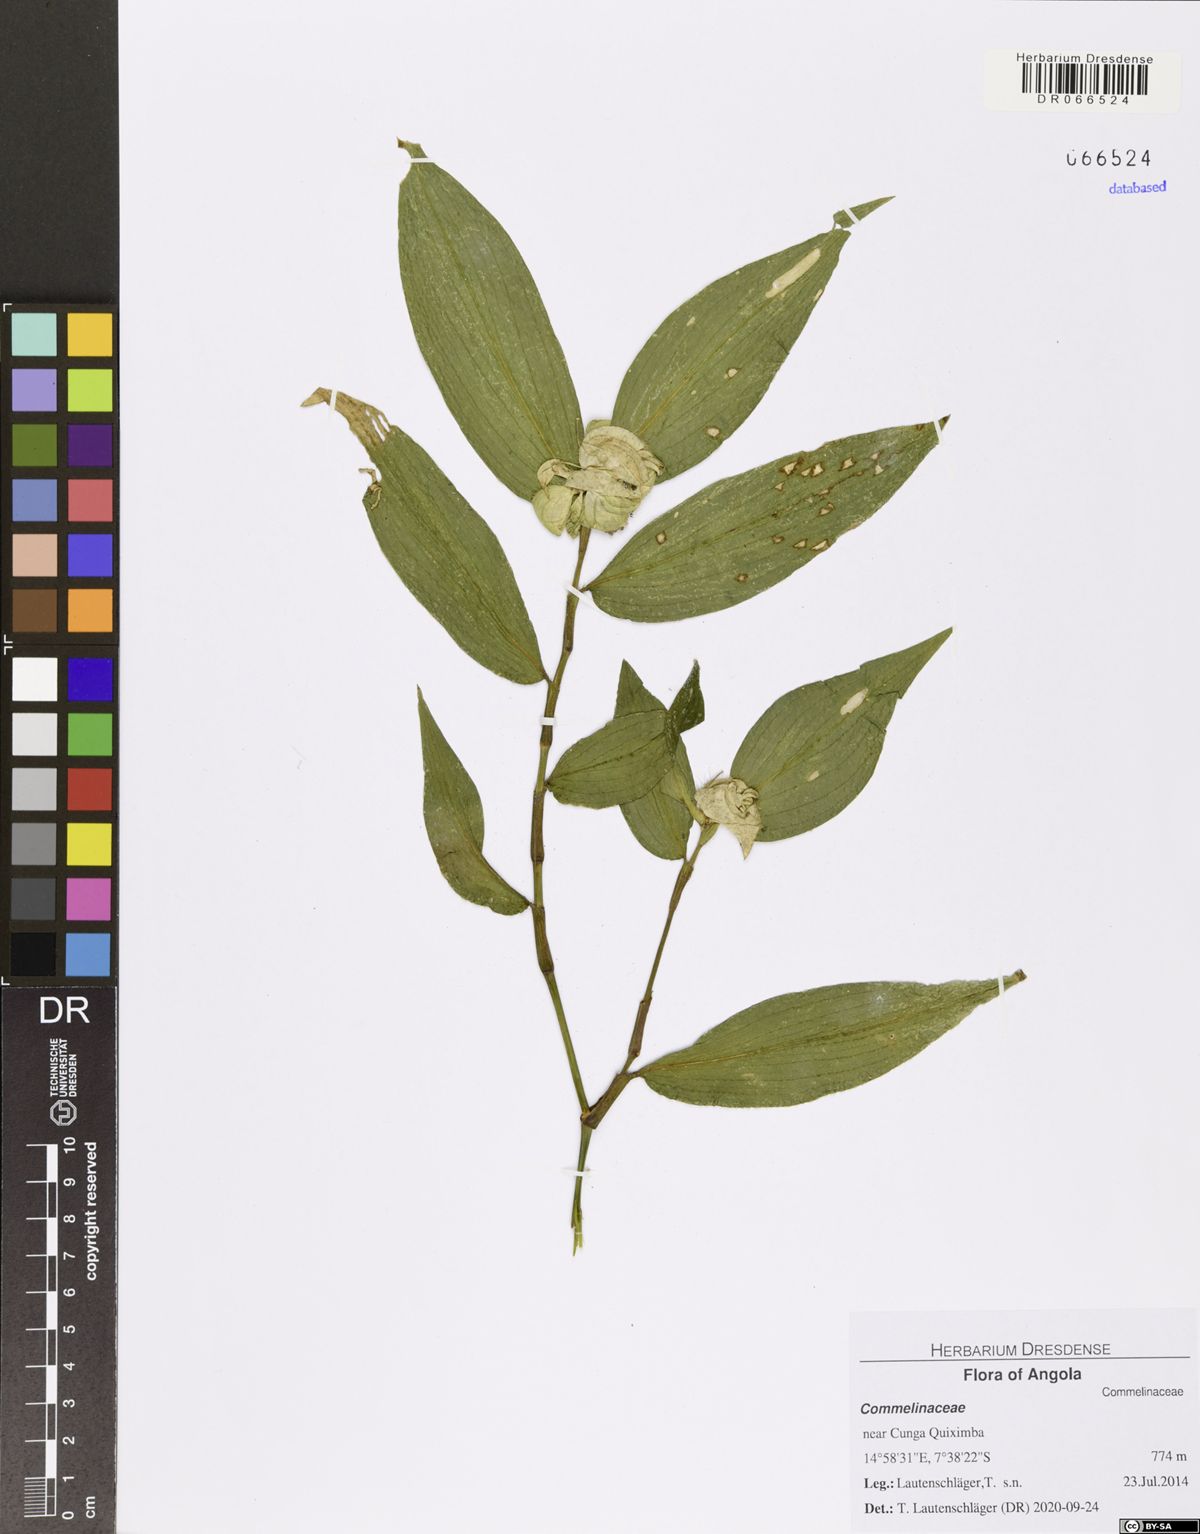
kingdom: Plantae
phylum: Tracheophyta
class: Liliopsida
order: Commelinales
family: Commelinaceae
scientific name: Commelinaceae
